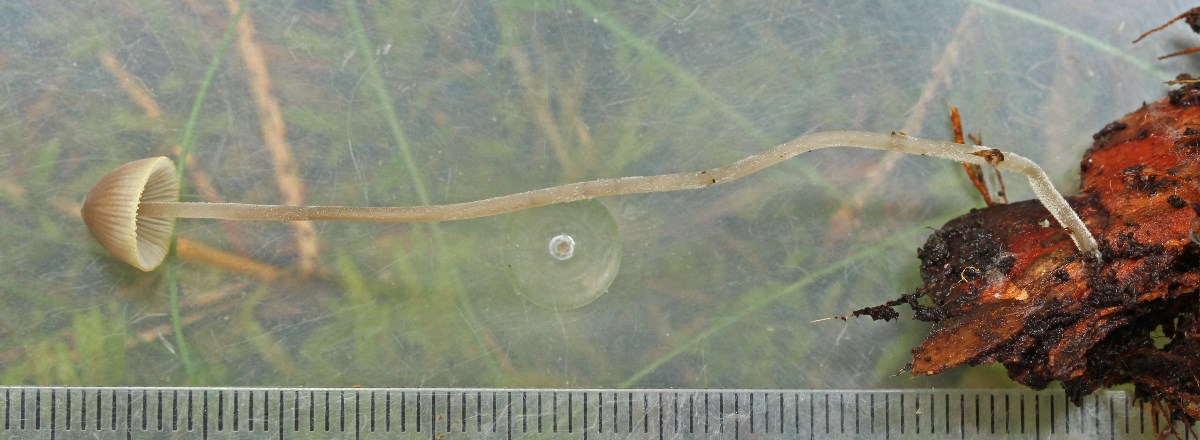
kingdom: Fungi
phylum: Basidiomycota
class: Agaricomycetes
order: Agaricales
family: Mycenaceae
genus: Mycena
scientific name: Mycena amicta
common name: iris-huesvamp
